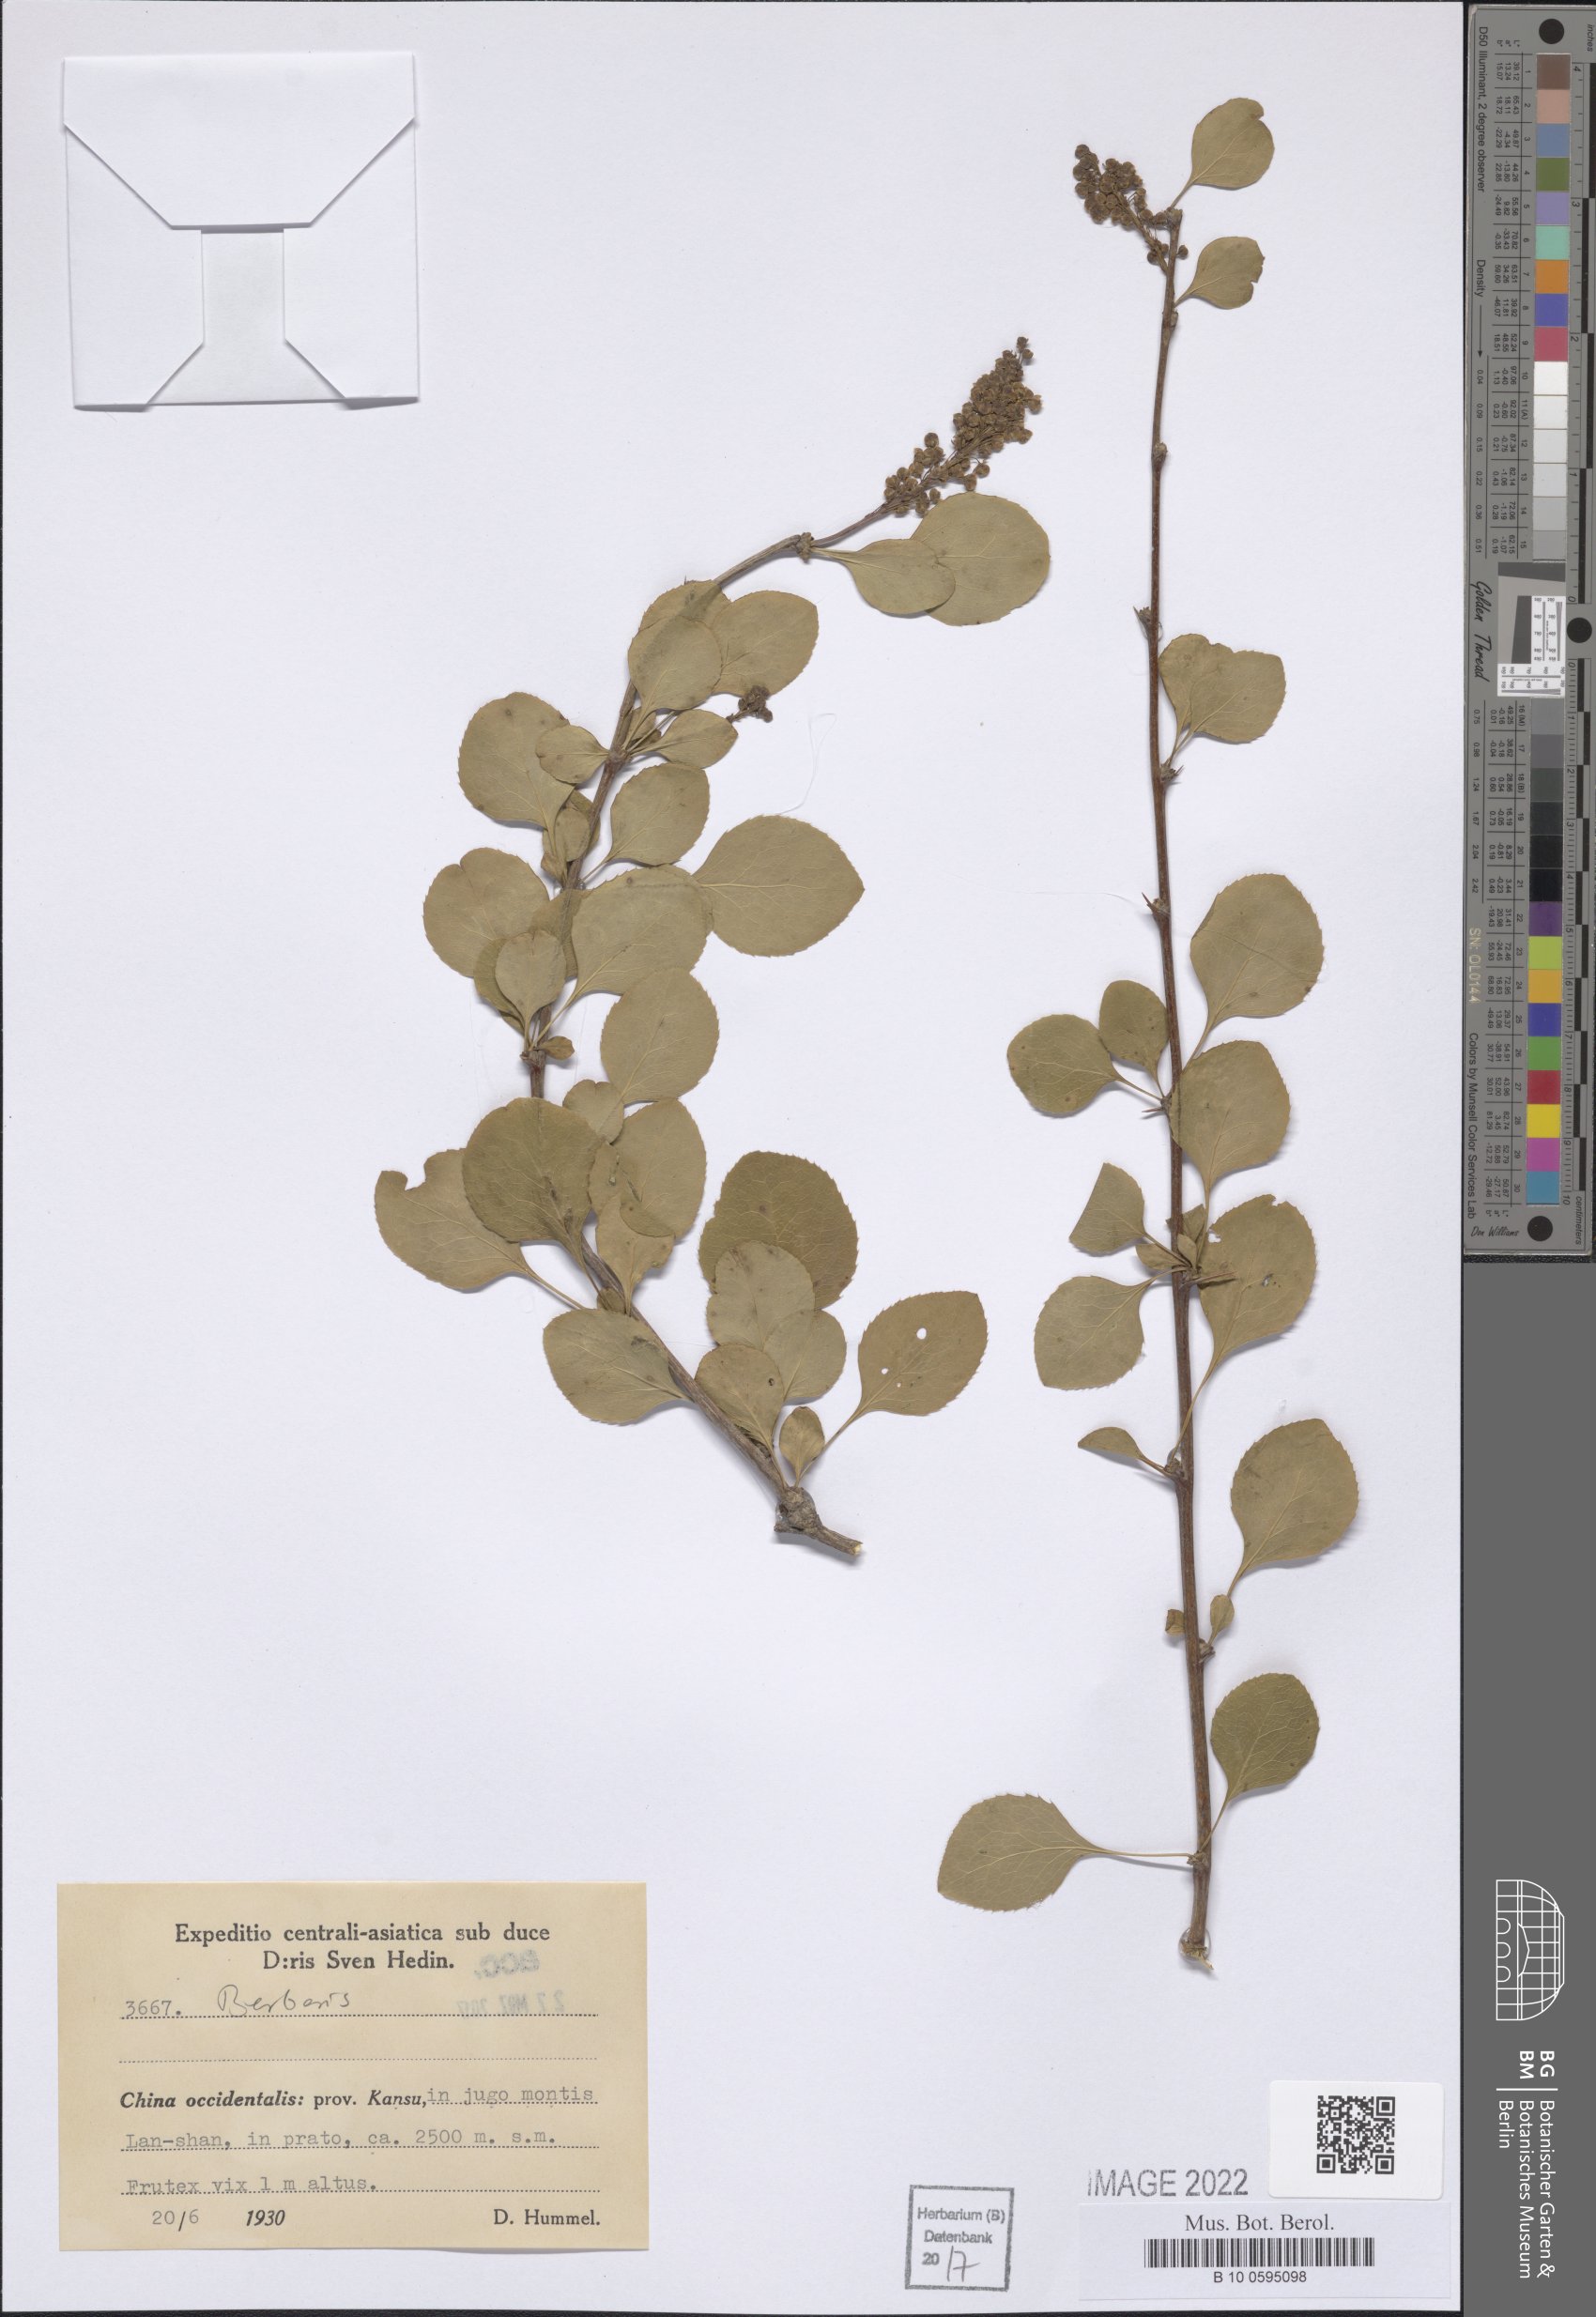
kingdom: Plantae
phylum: Tracheophyta
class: Magnoliopsida
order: Ranunculales
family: Berberidaceae
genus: Berberis
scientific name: Berberis
